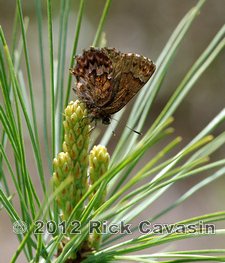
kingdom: Animalia
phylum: Arthropoda
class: Insecta
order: Lepidoptera
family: Lycaenidae
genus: Incisalia
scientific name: Incisalia eryphon
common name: Western Pine Elfin
